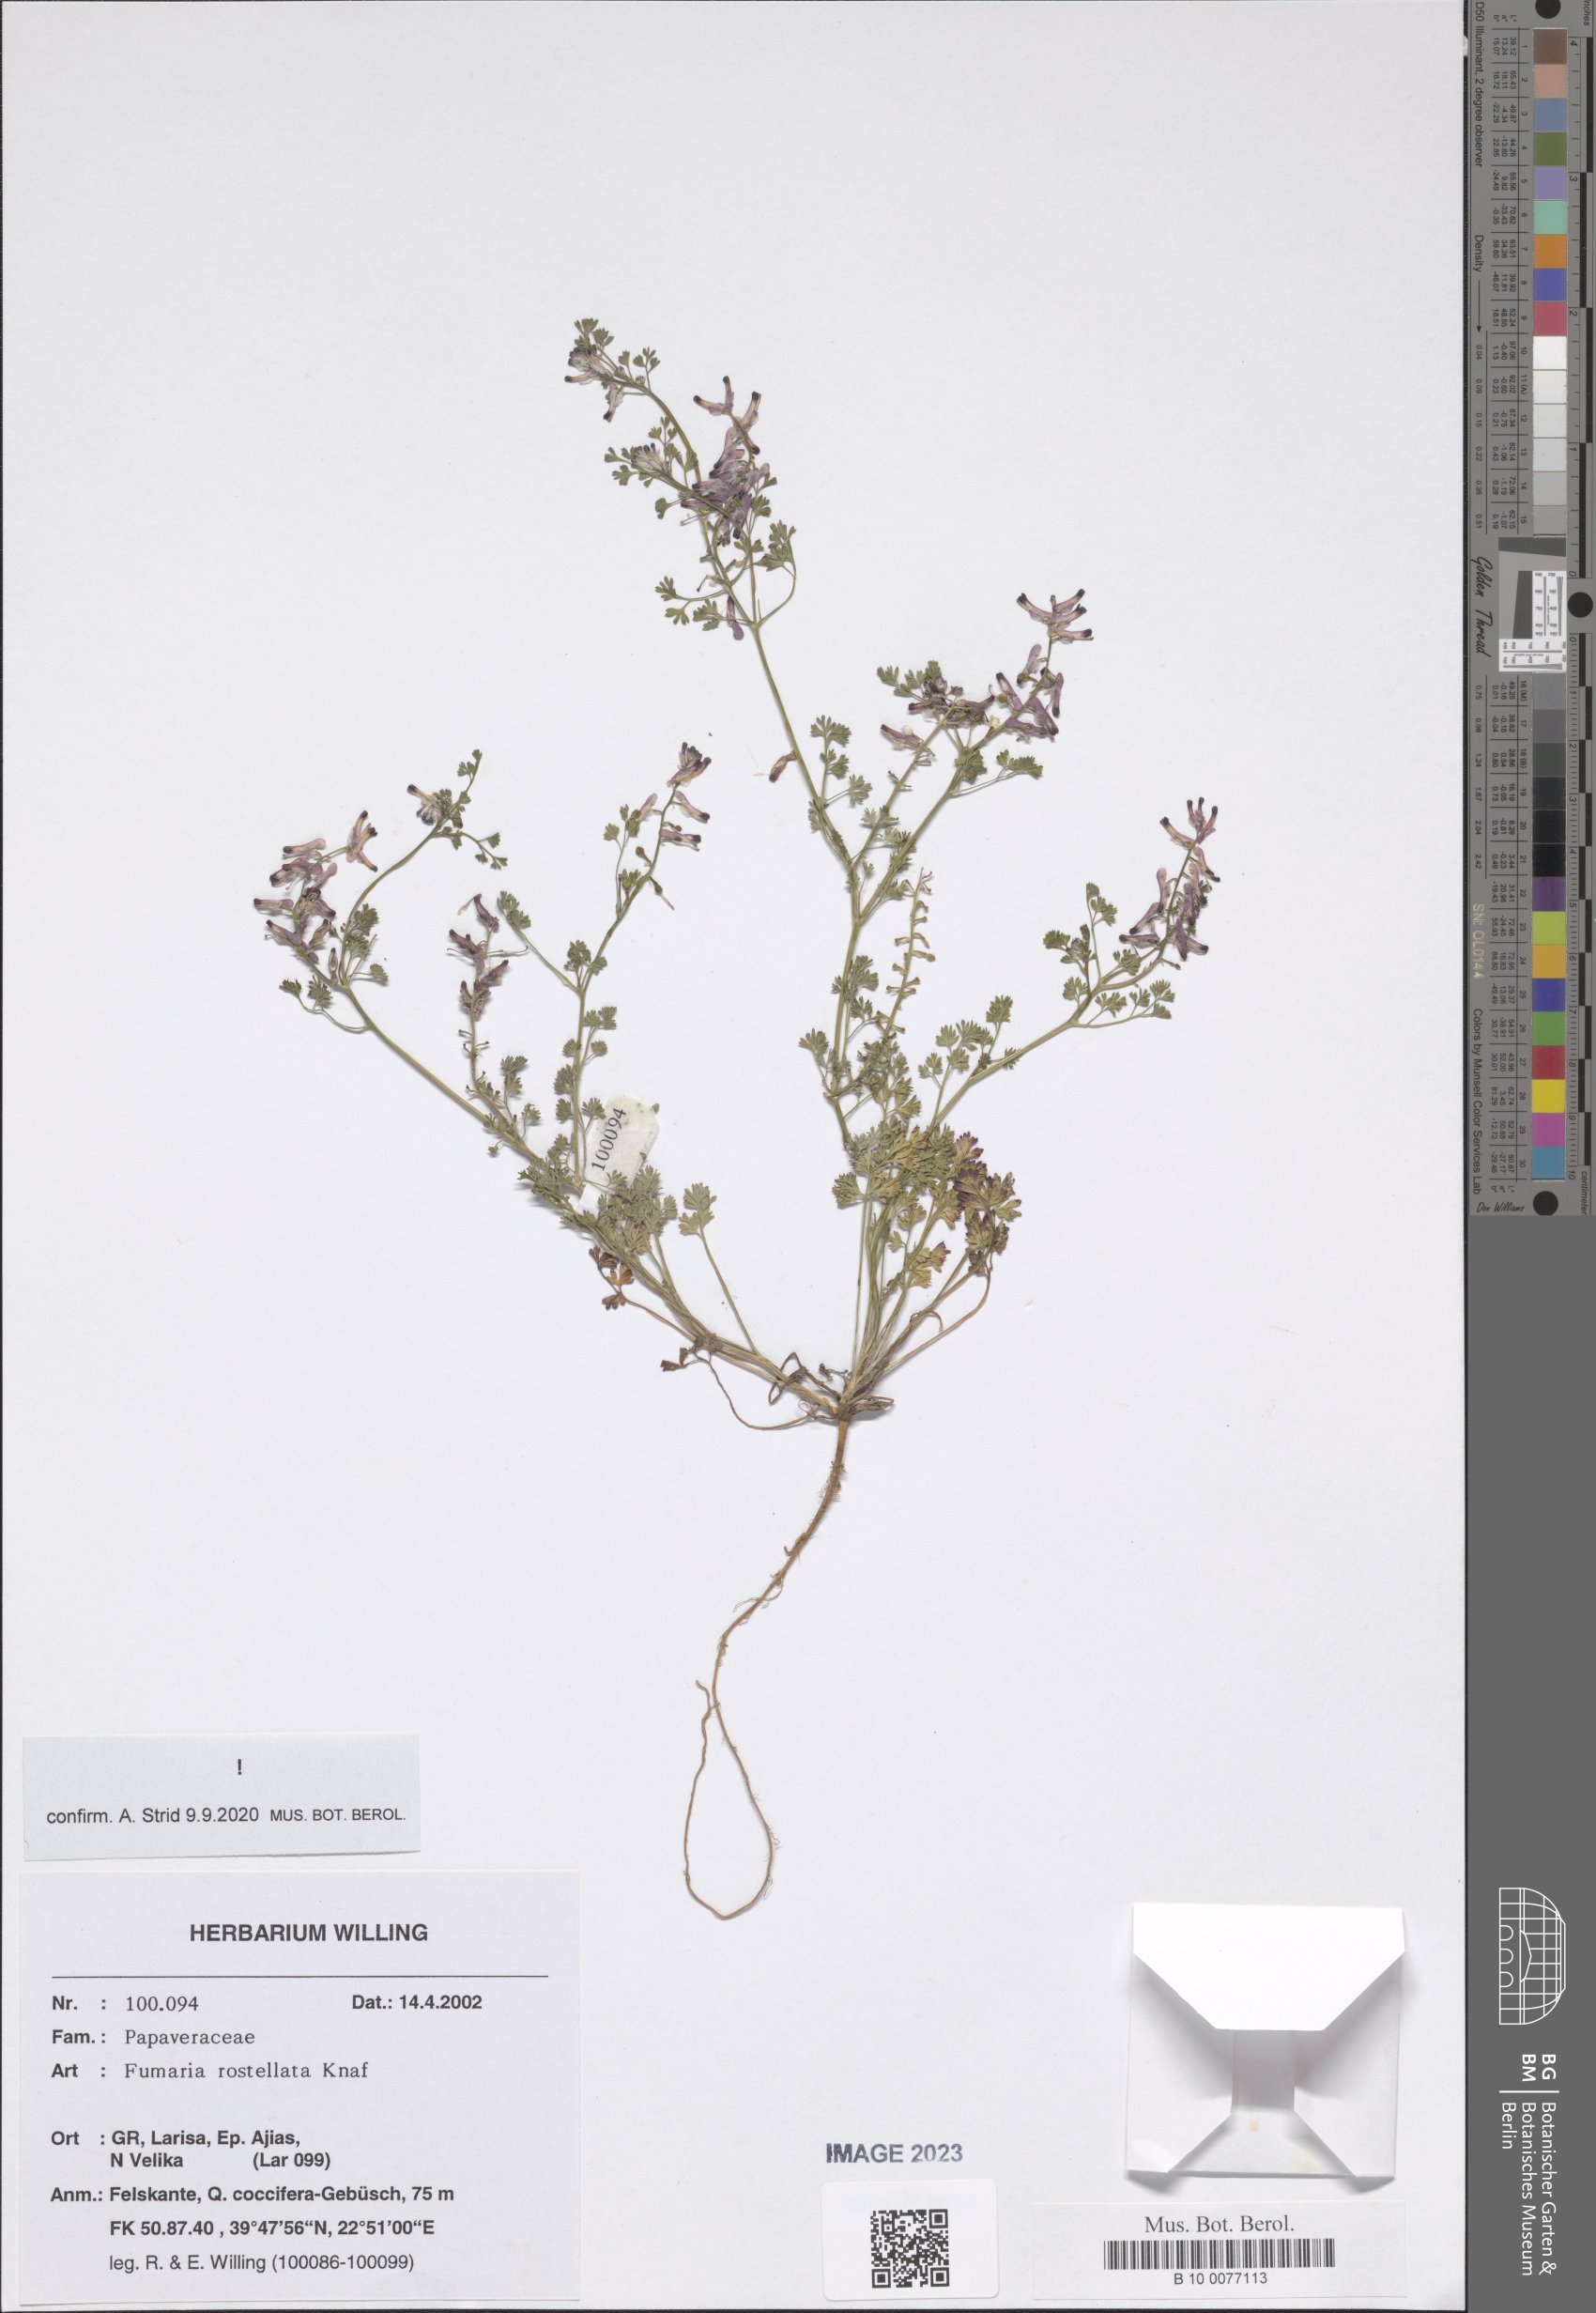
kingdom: Plantae
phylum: Tracheophyta
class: Magnoliopsida
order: Ranunculales
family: Papaveraceae
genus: Fumaria
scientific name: Fumaria rostellata
